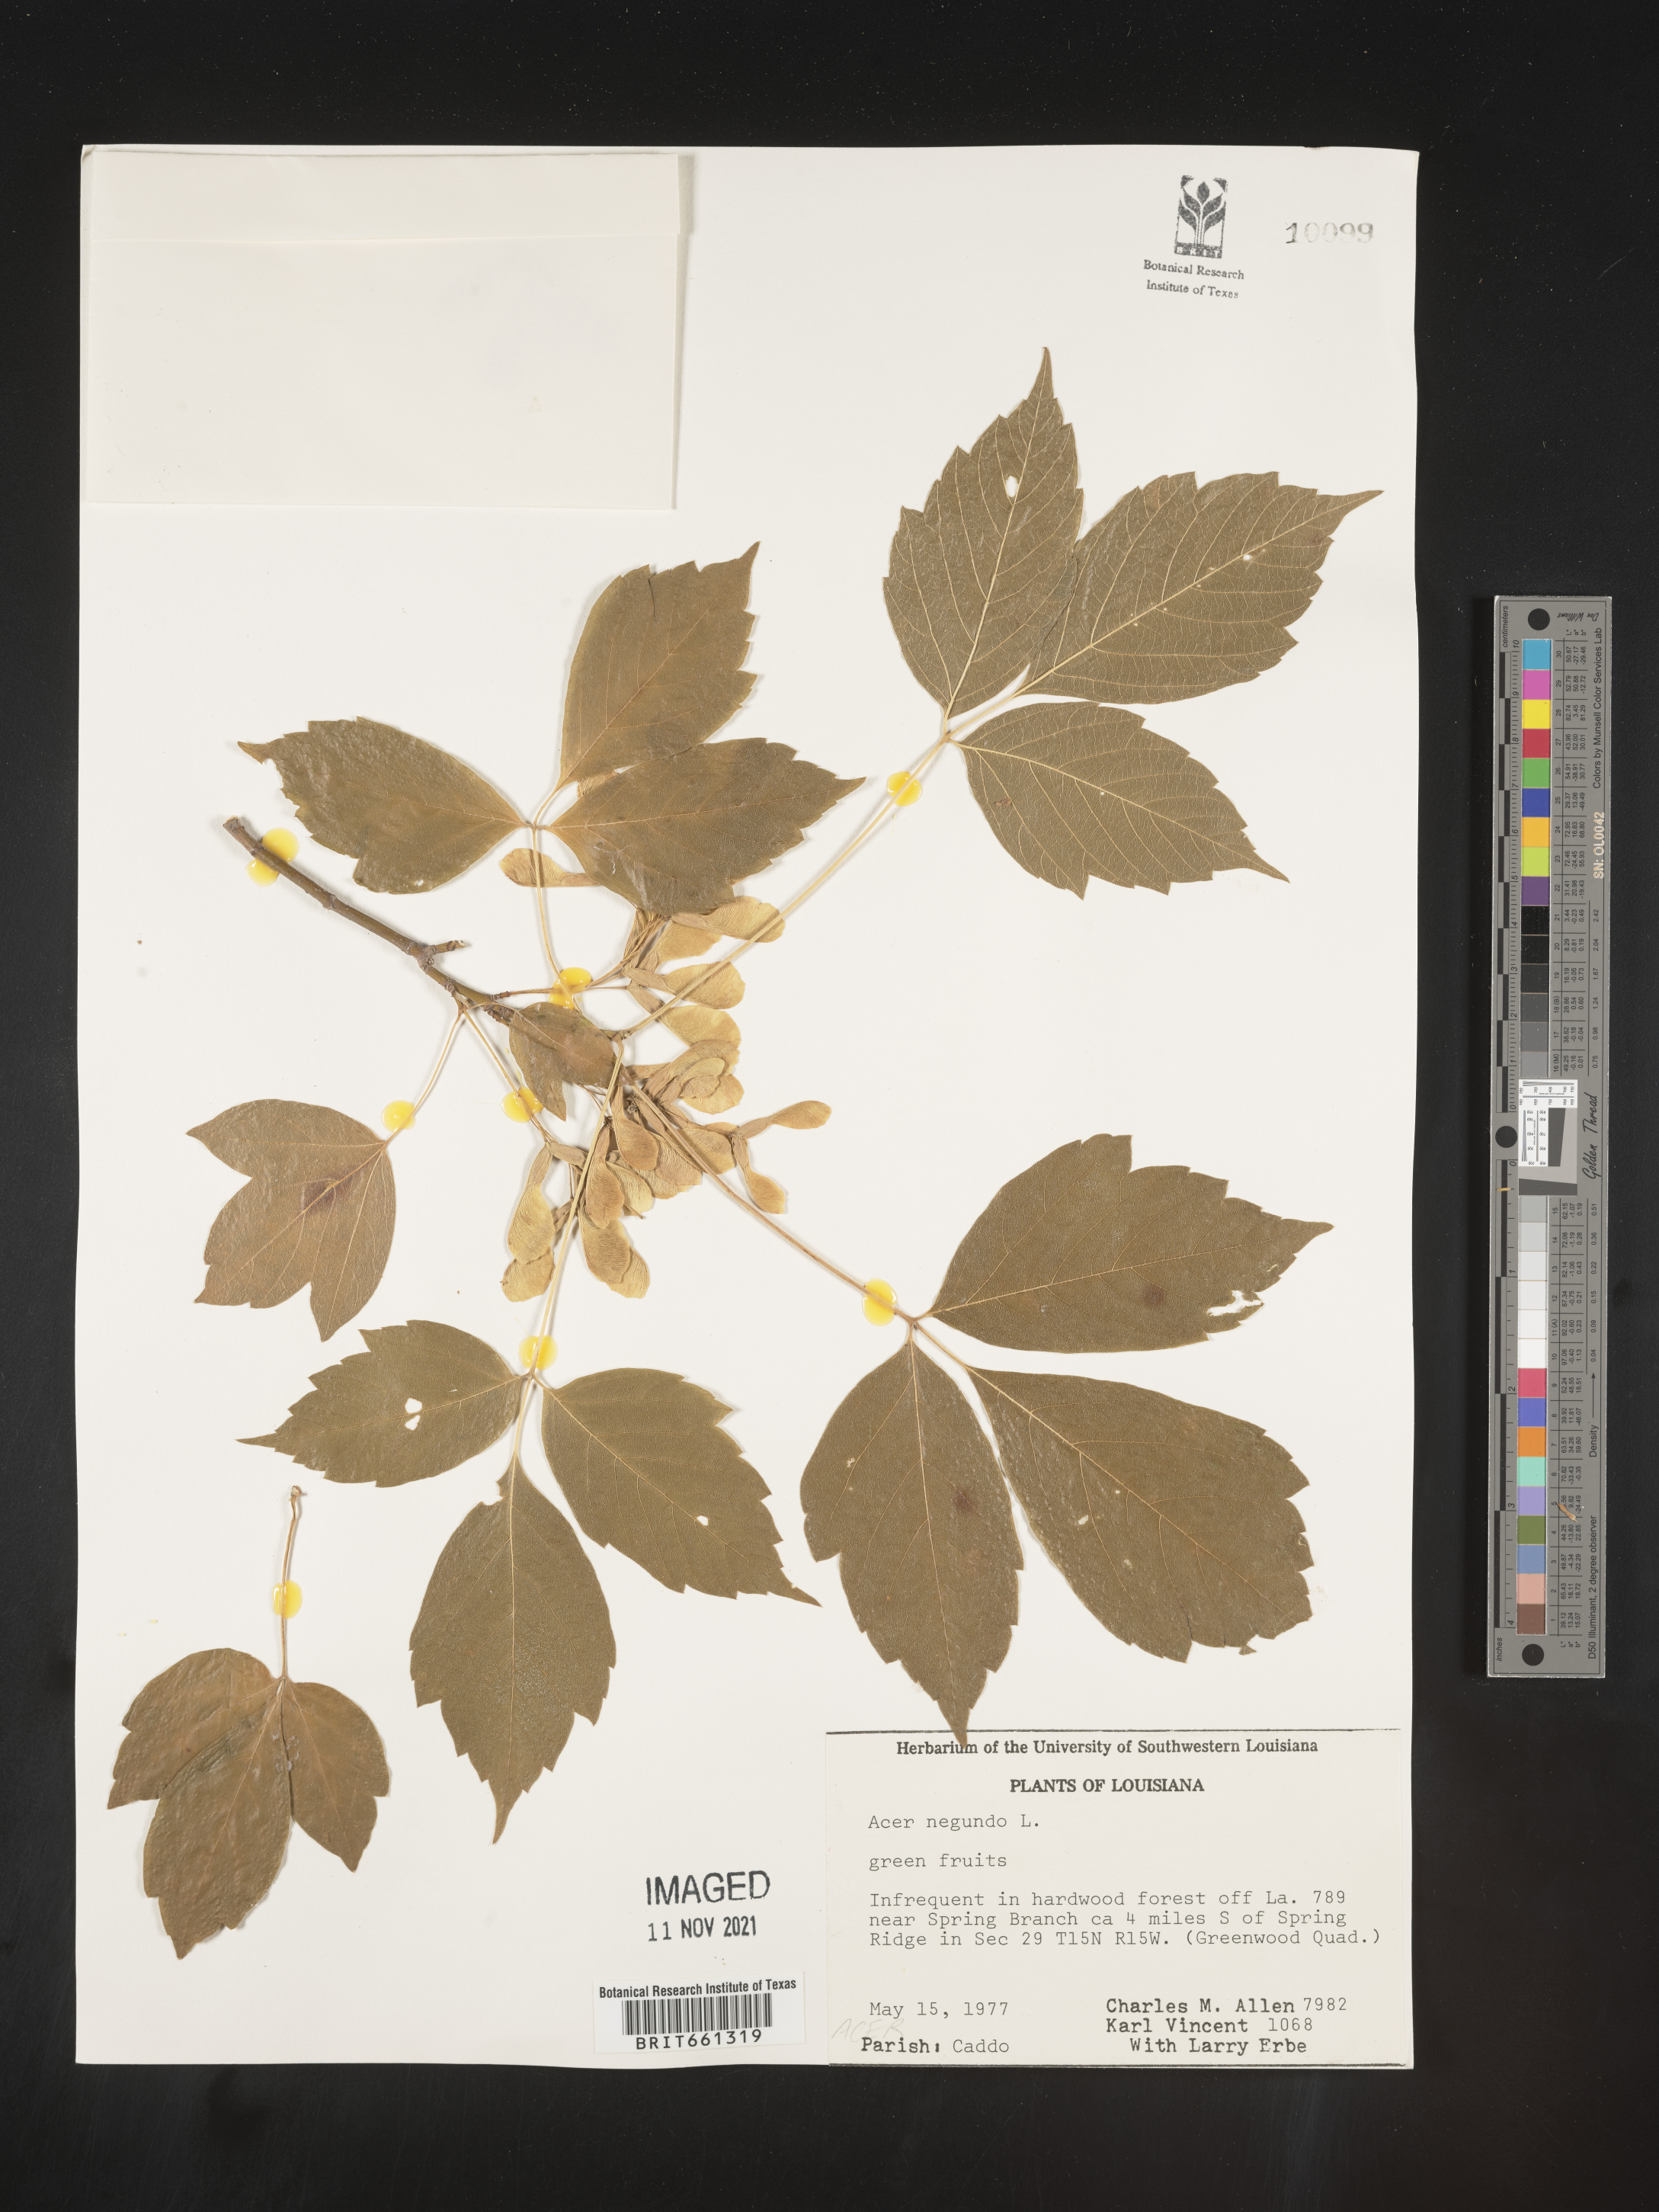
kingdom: Plantae
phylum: Tracheophyta
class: Magnoliopsida
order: Sapindales
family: Sapindaceae
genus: Acer
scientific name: Acer negundo
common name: Ashleaf maple
